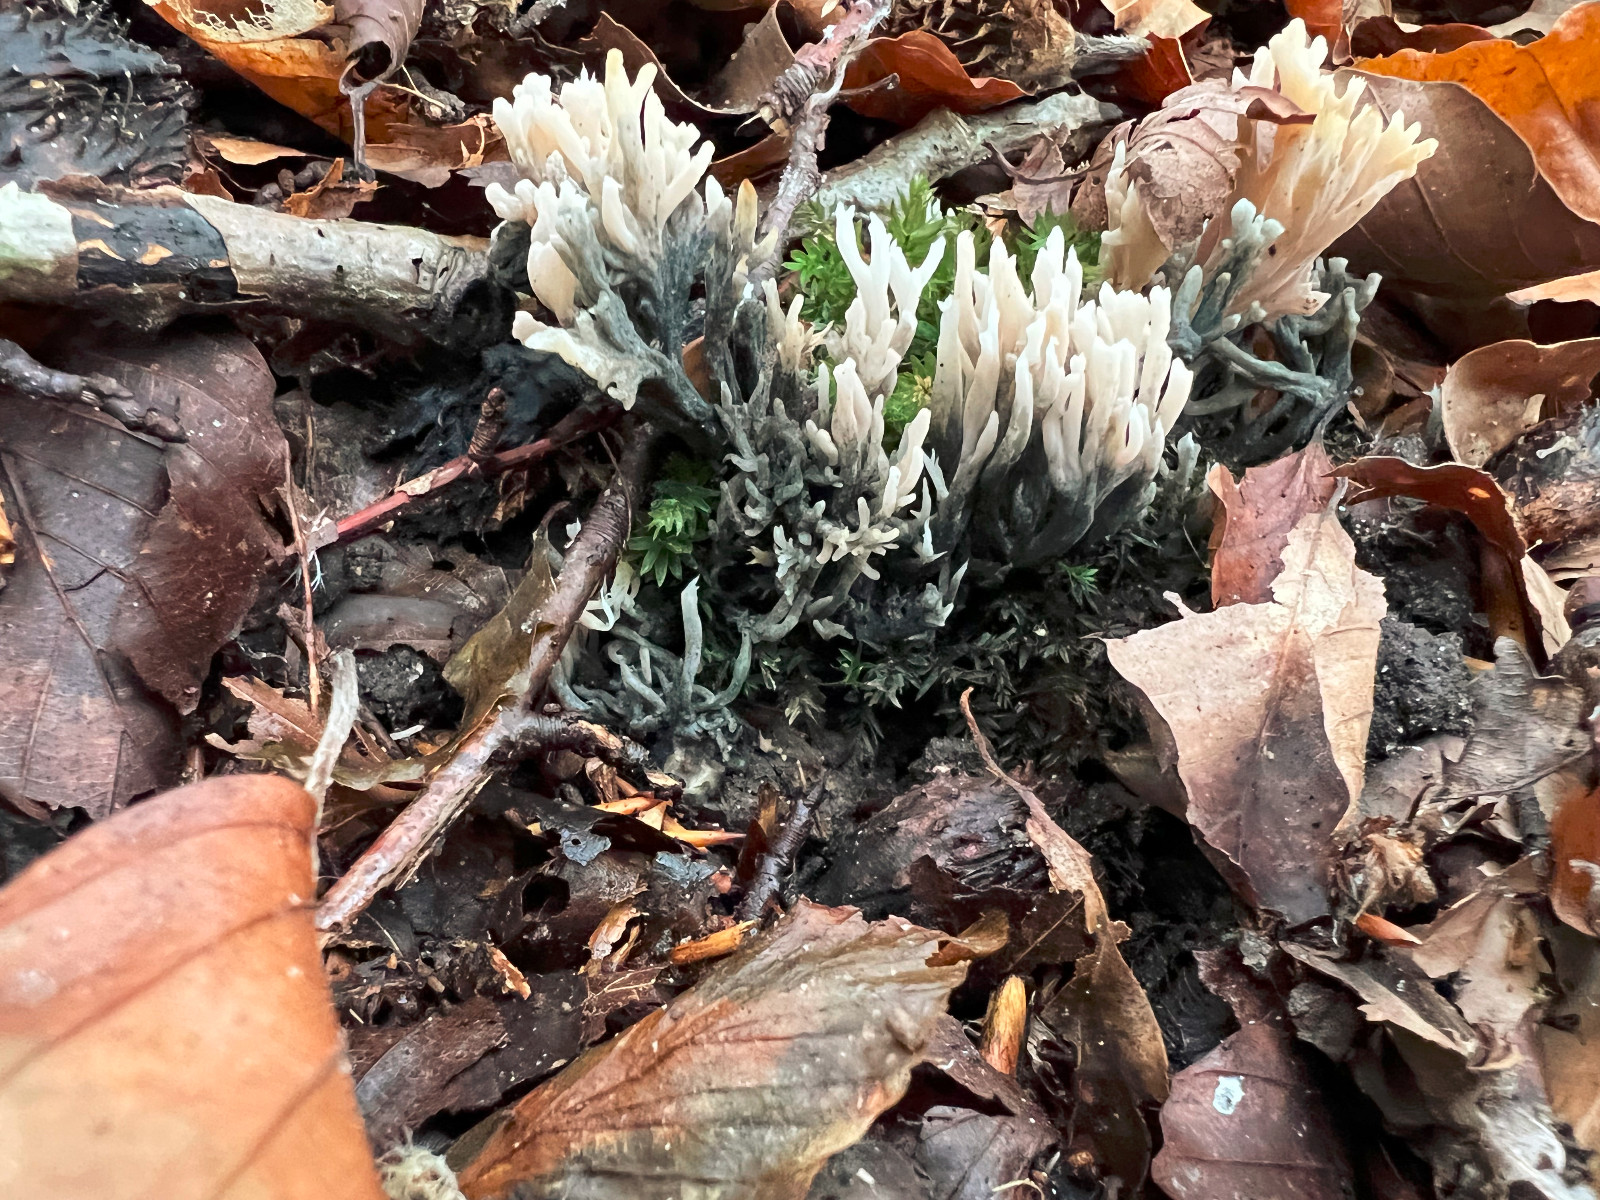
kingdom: Fungi
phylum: Ascomycota
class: Sordariomycetes
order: Xylariales
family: Xylariaceae
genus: Xylaria
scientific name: Xylaria hypoxylon
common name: grenet stødsvamp
